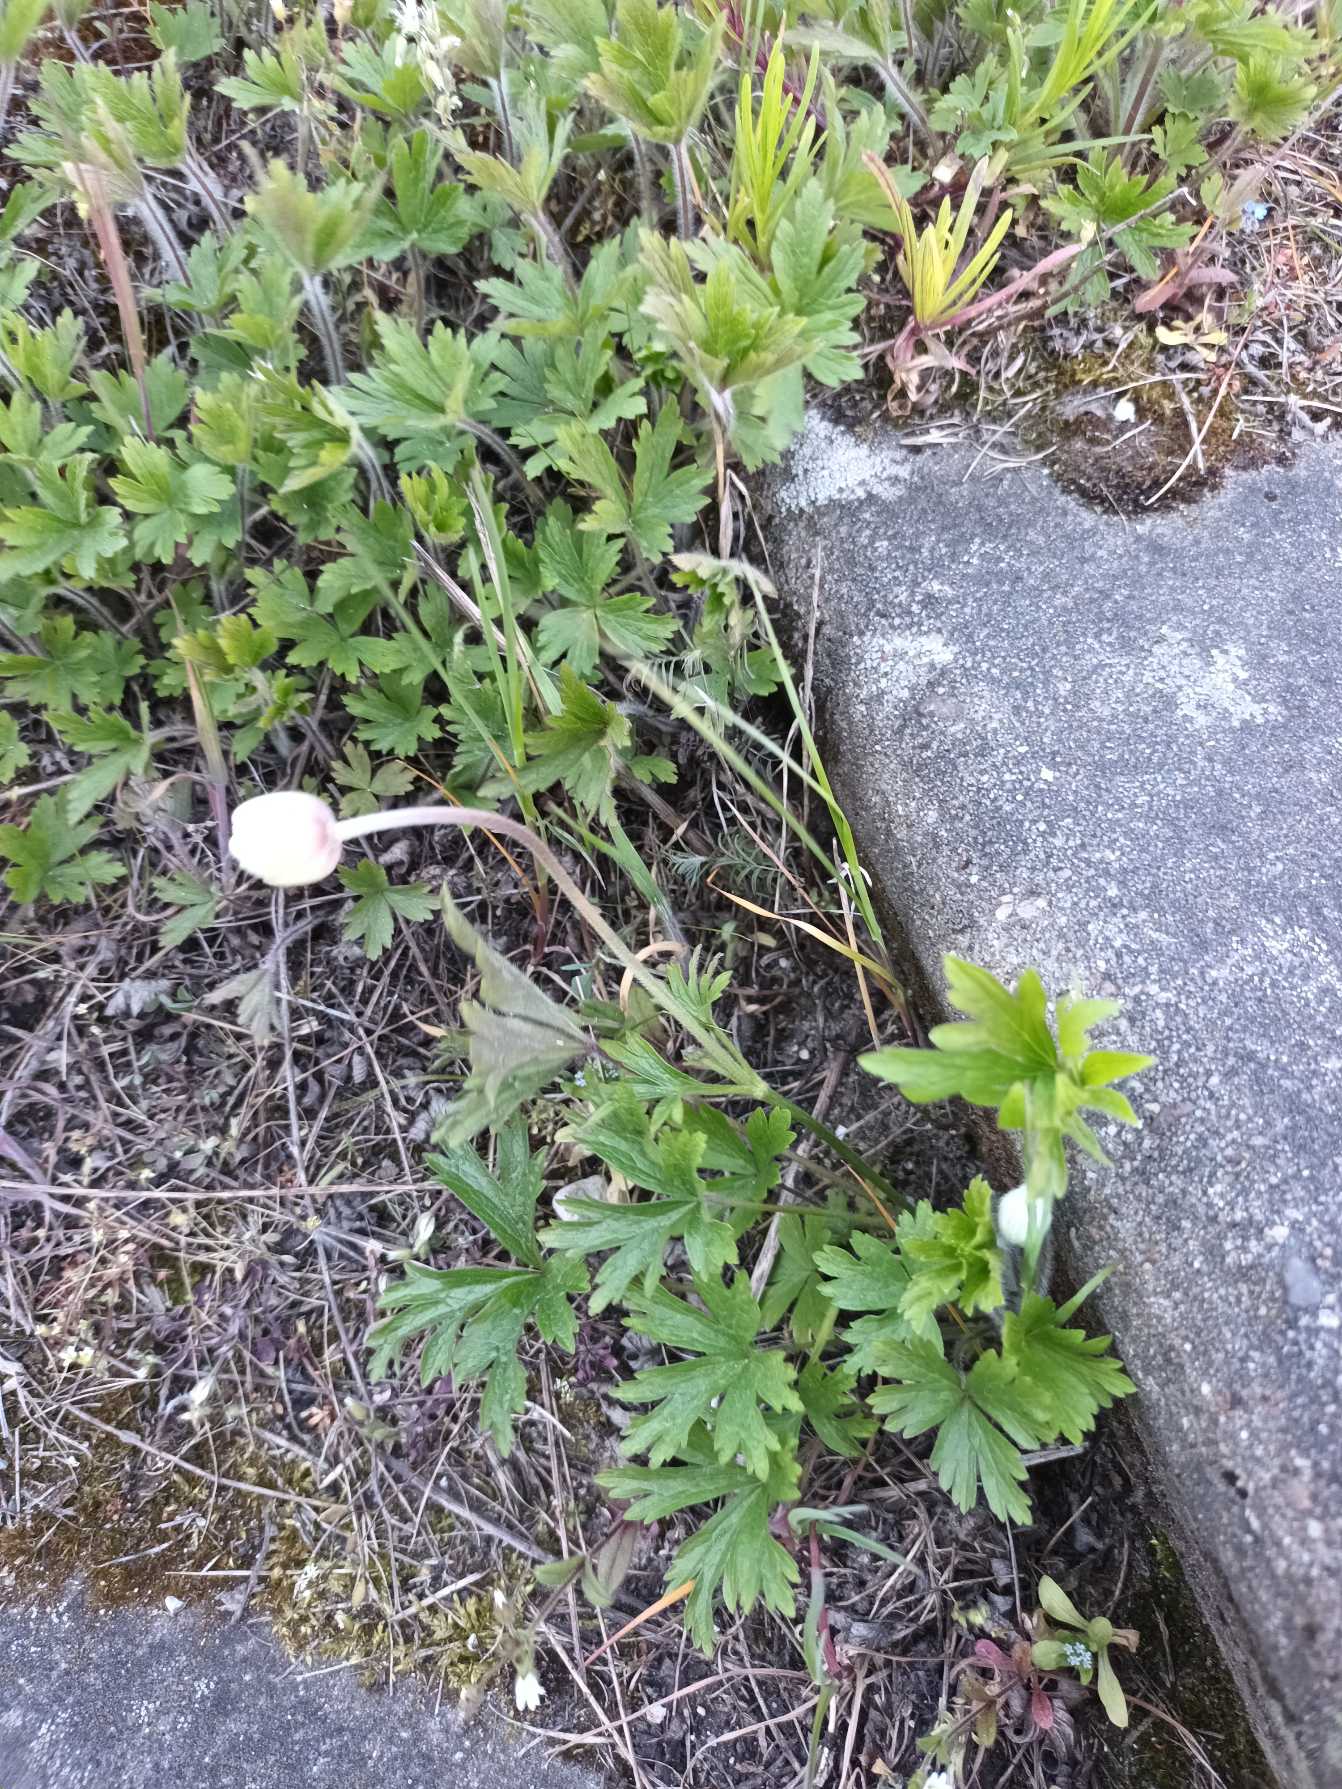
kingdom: Plantae
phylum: Tracheophyta
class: Magnoliopsida
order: Ranunculales
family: Ranunculaceae
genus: Anemone
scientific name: Anemone sylvestris
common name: Sommer-anemone
